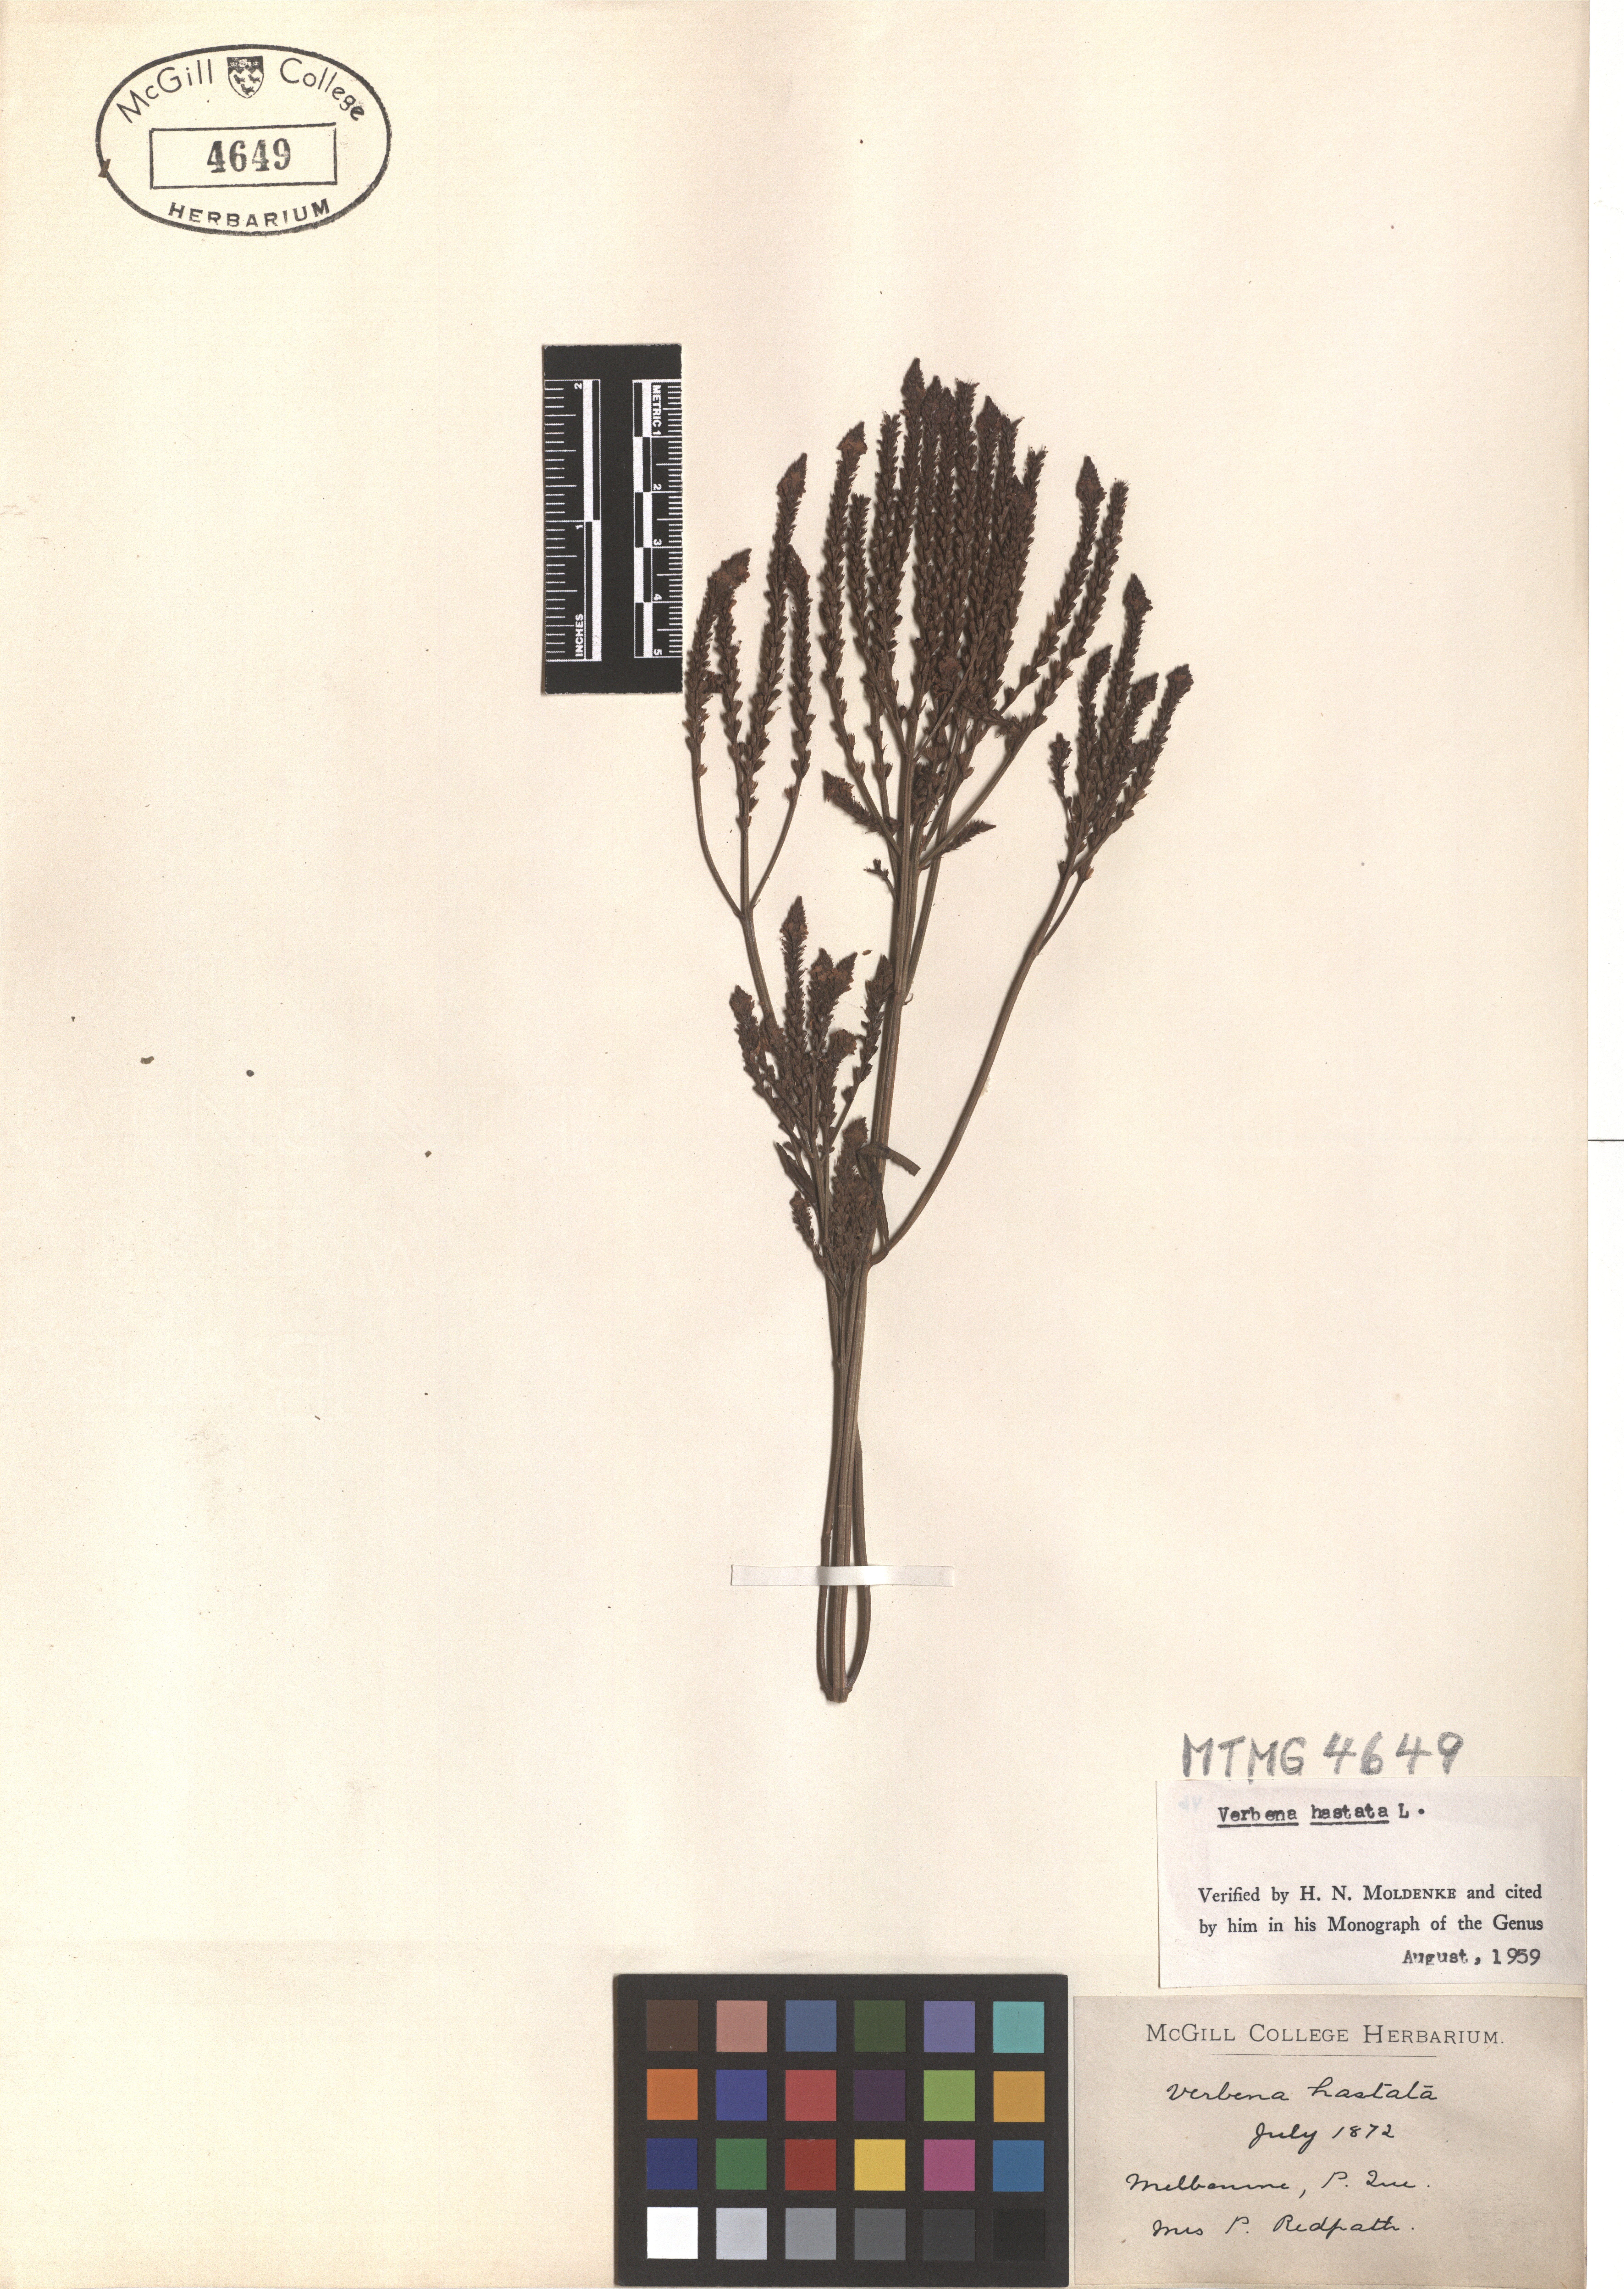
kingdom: Plantae
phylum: Tracheophyta
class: Magnoliopsida
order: Lamiales
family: Verbenaceae
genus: Verbena
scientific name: Verbena hastata
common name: American blue vervain
